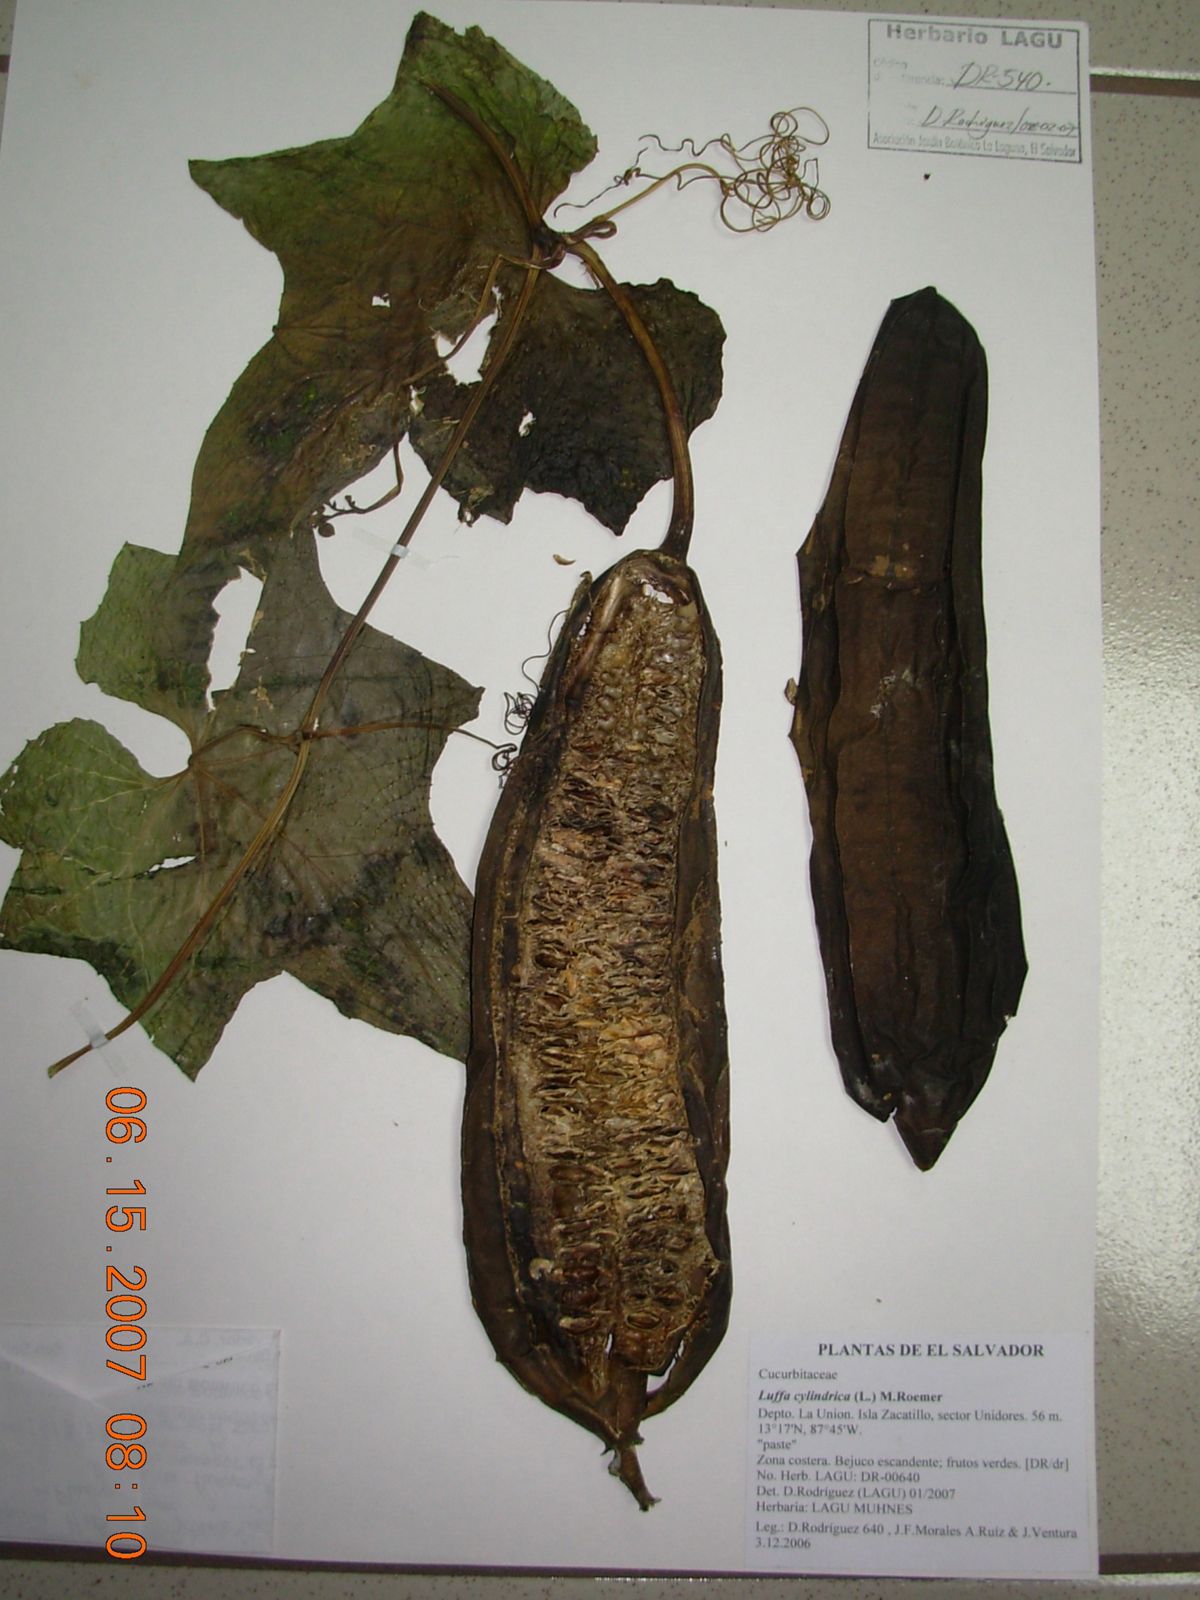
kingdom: Plantae
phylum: Tracheophyta
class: Magnoliopsida
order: Cucurbitales
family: Cucurbitaceae
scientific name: Cucurbitaceae
